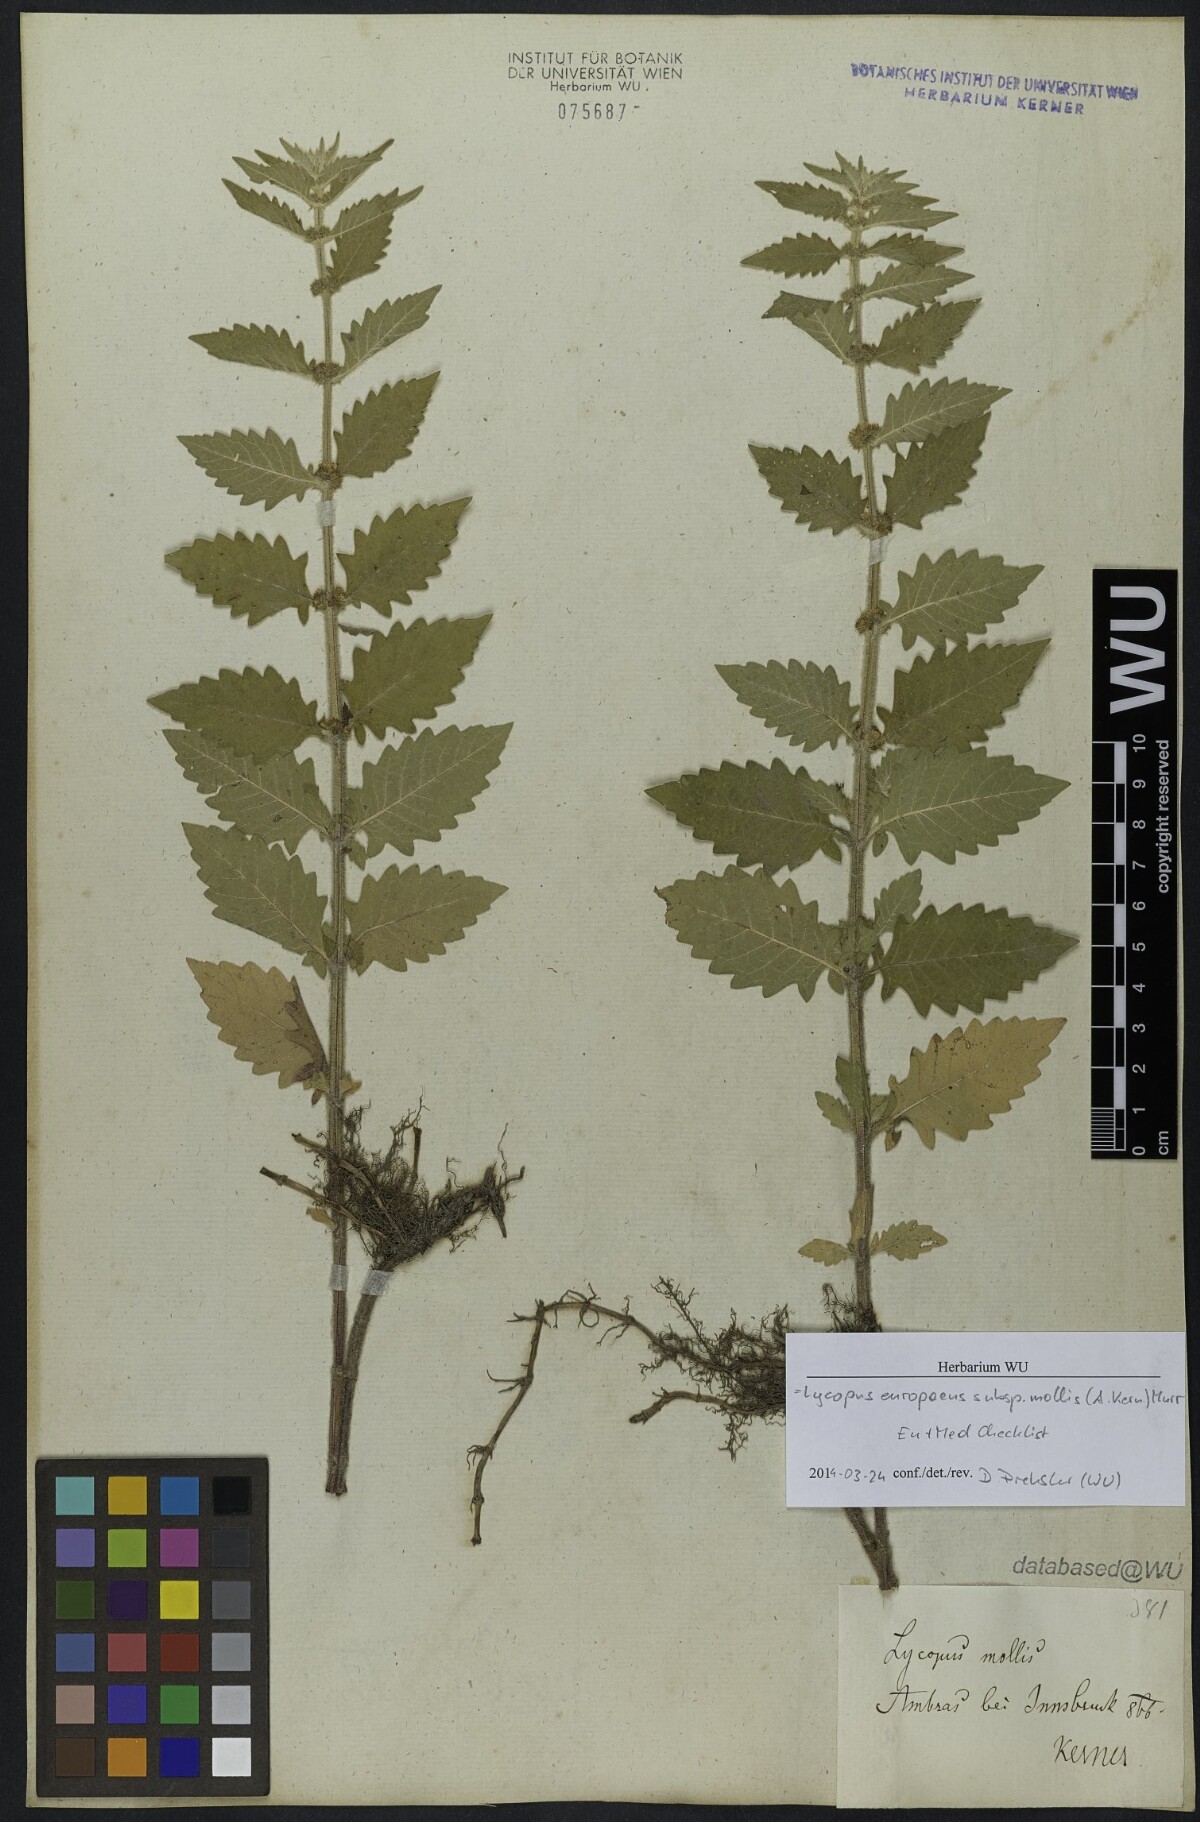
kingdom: Plantae
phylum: Tracheophyta
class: Magnoliopsida
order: Lamiales
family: Lamiaceae
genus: Lycopus
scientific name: Lycopus europaeus
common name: European bugleweed
